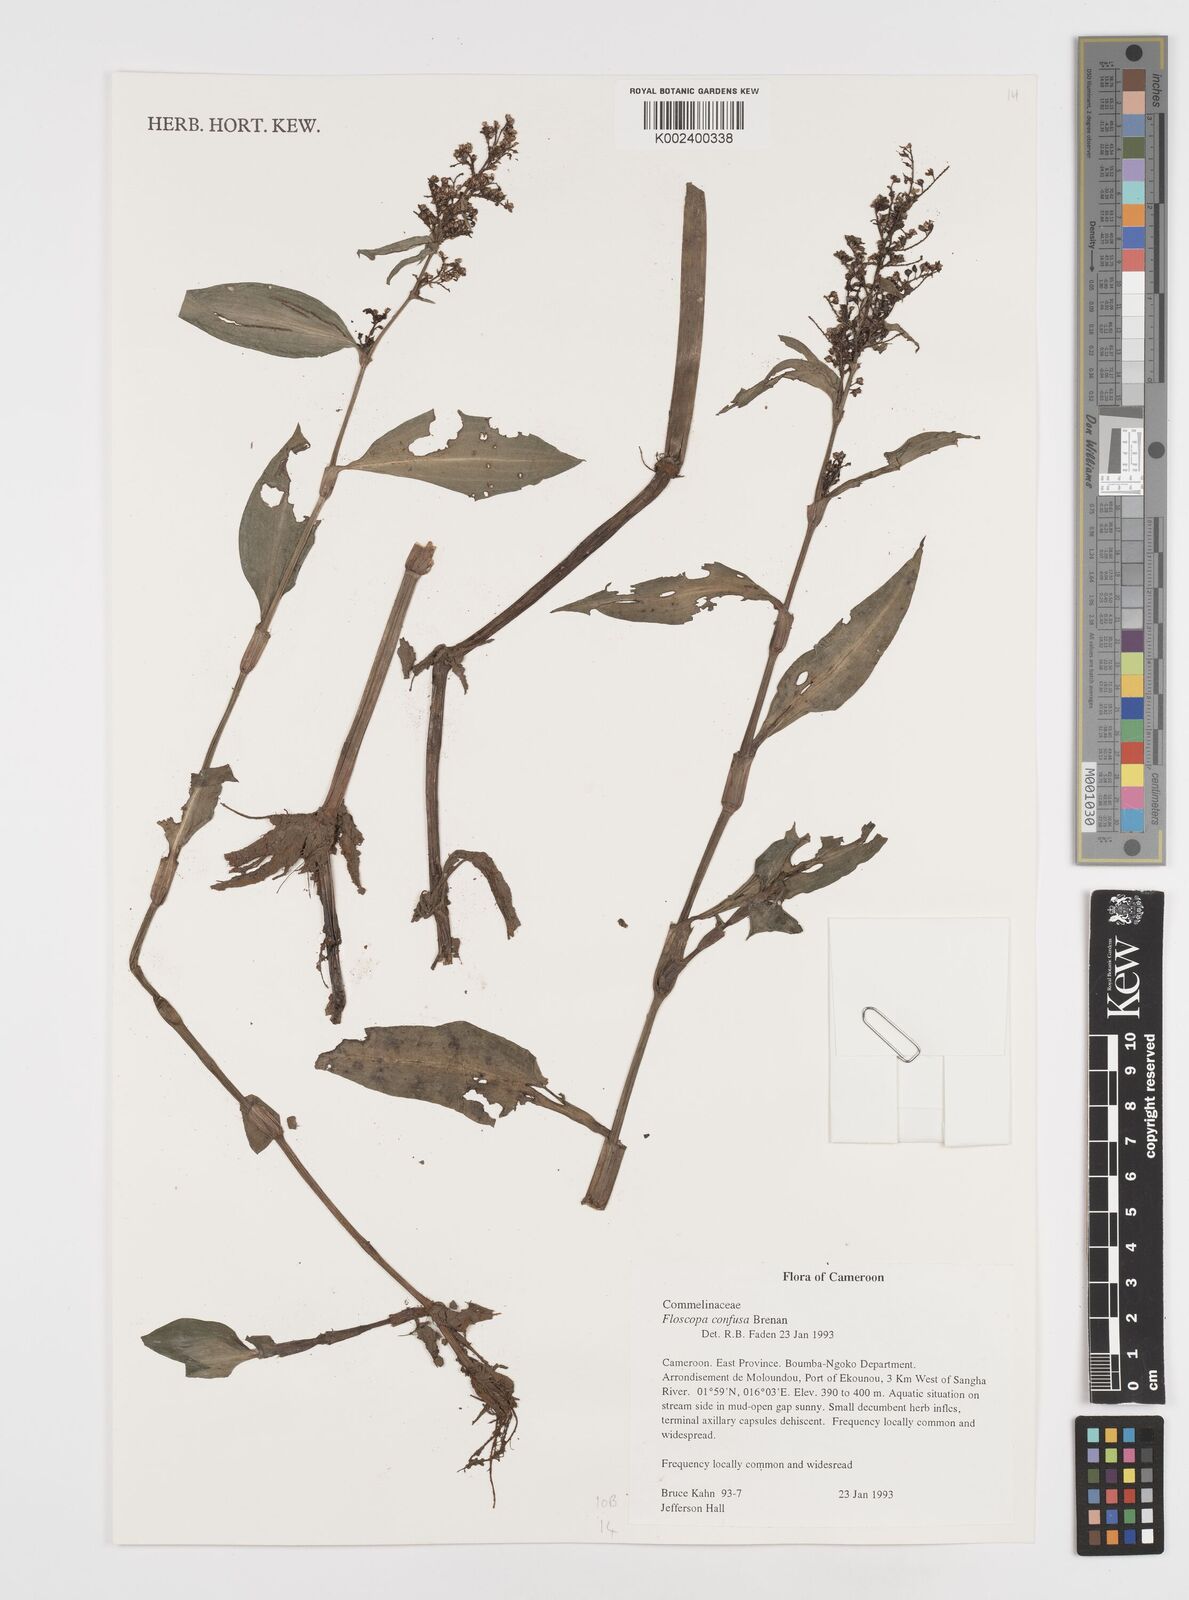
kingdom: Plantae
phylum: Tracheophyta
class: Liliopsida
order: Commelinales
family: Commelinaceae
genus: Floscopa
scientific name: Floscopa confusa
